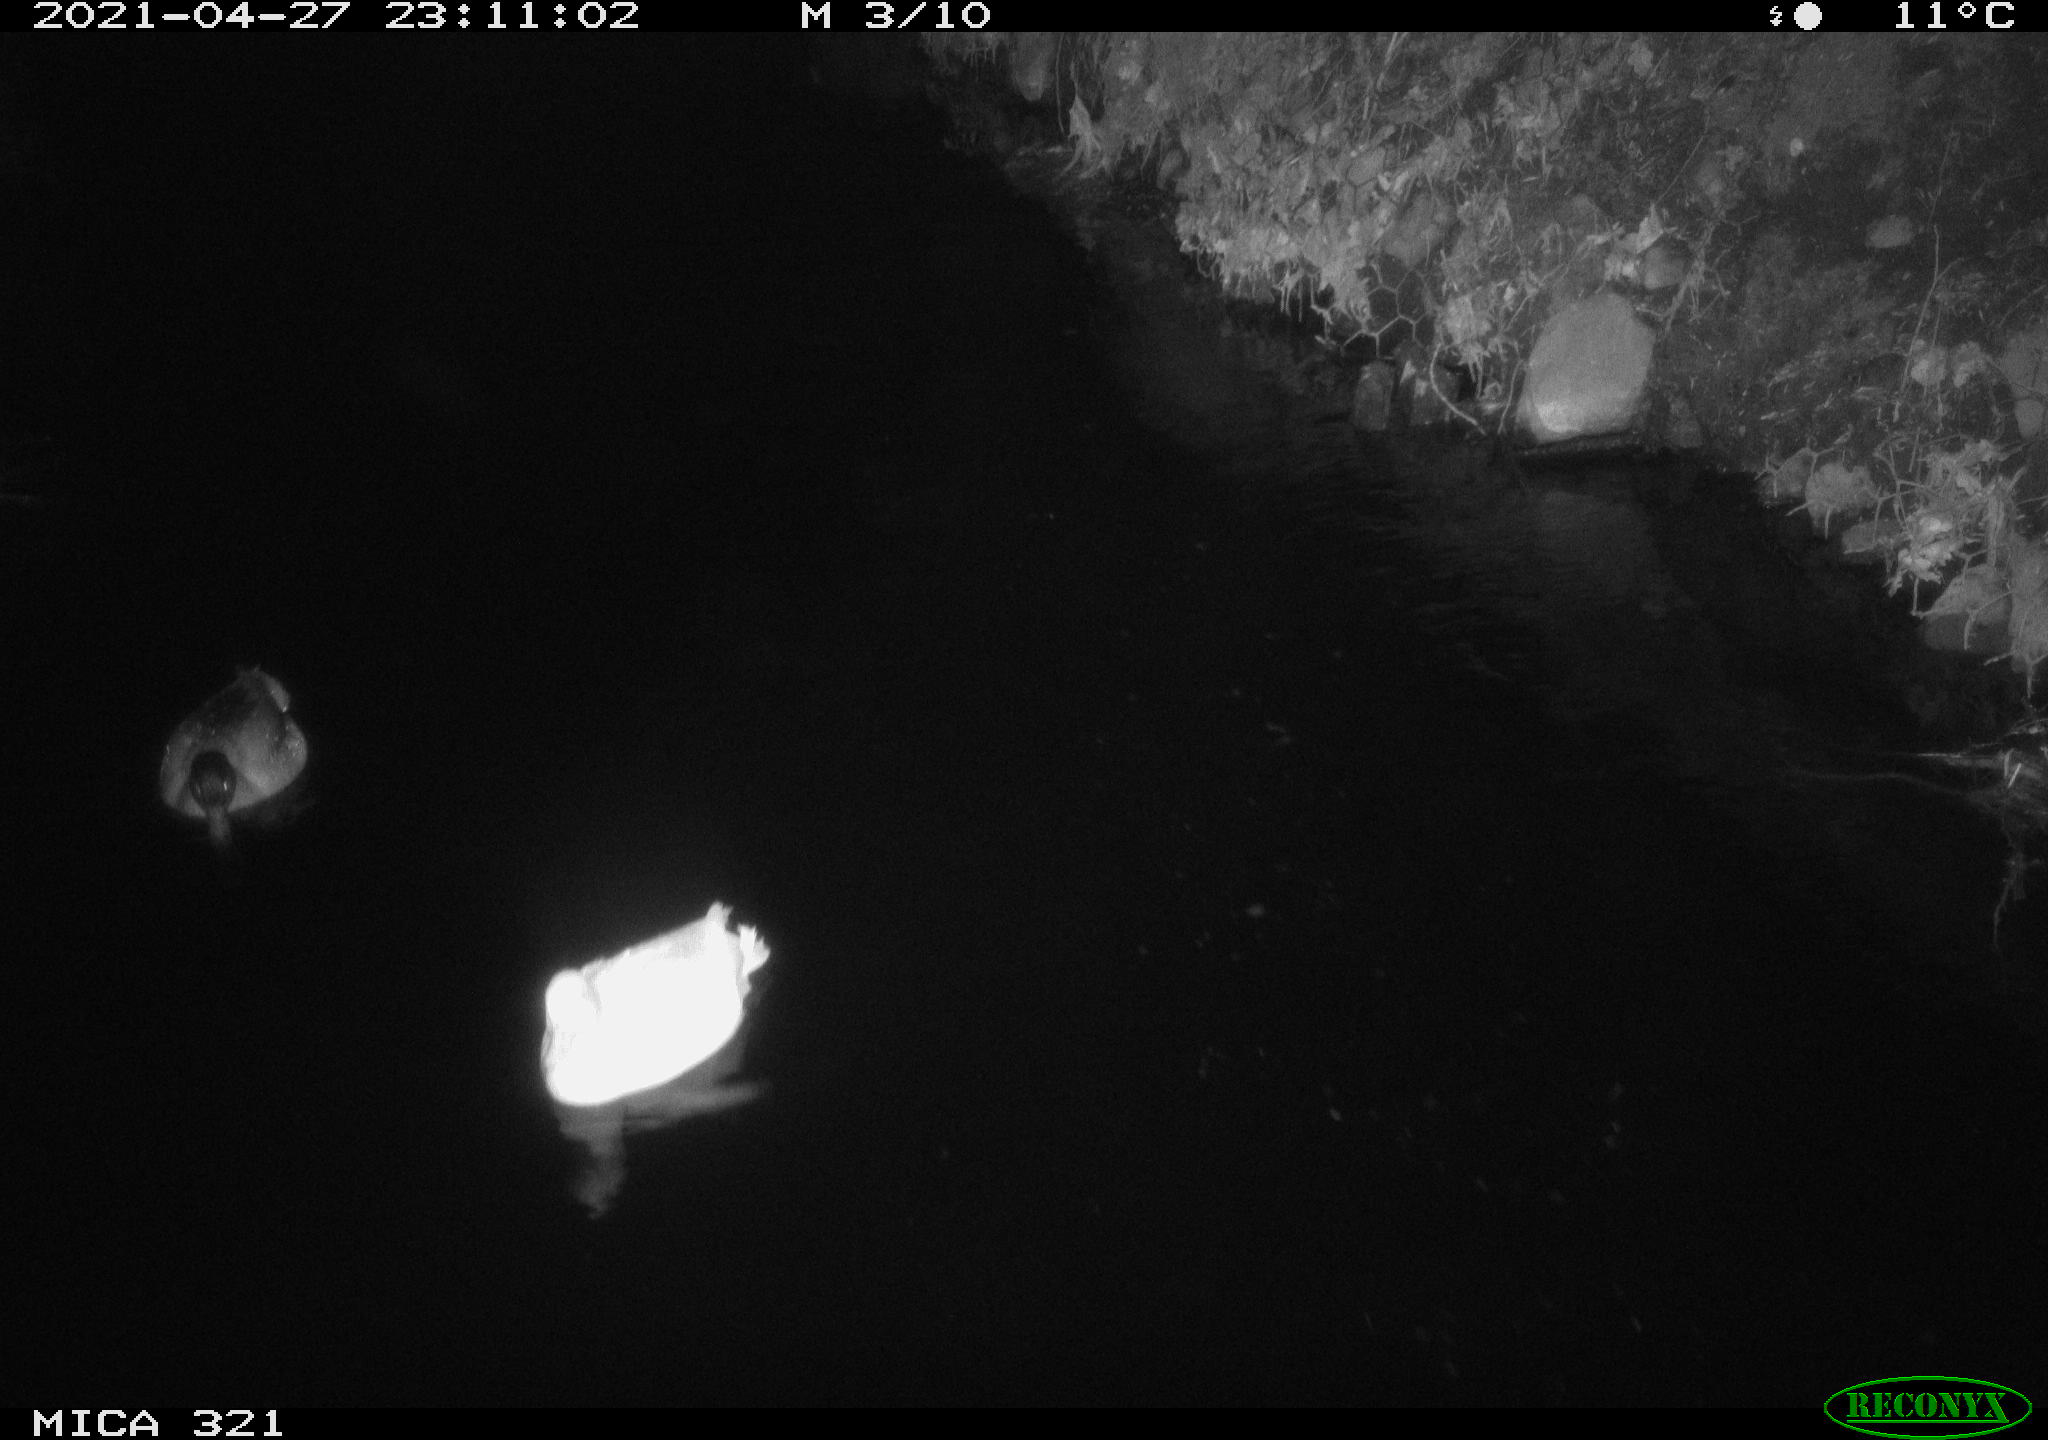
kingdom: Animalia
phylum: Chordata
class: Aves
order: Anseriformes
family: Anatidae
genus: Anas
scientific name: Anas
